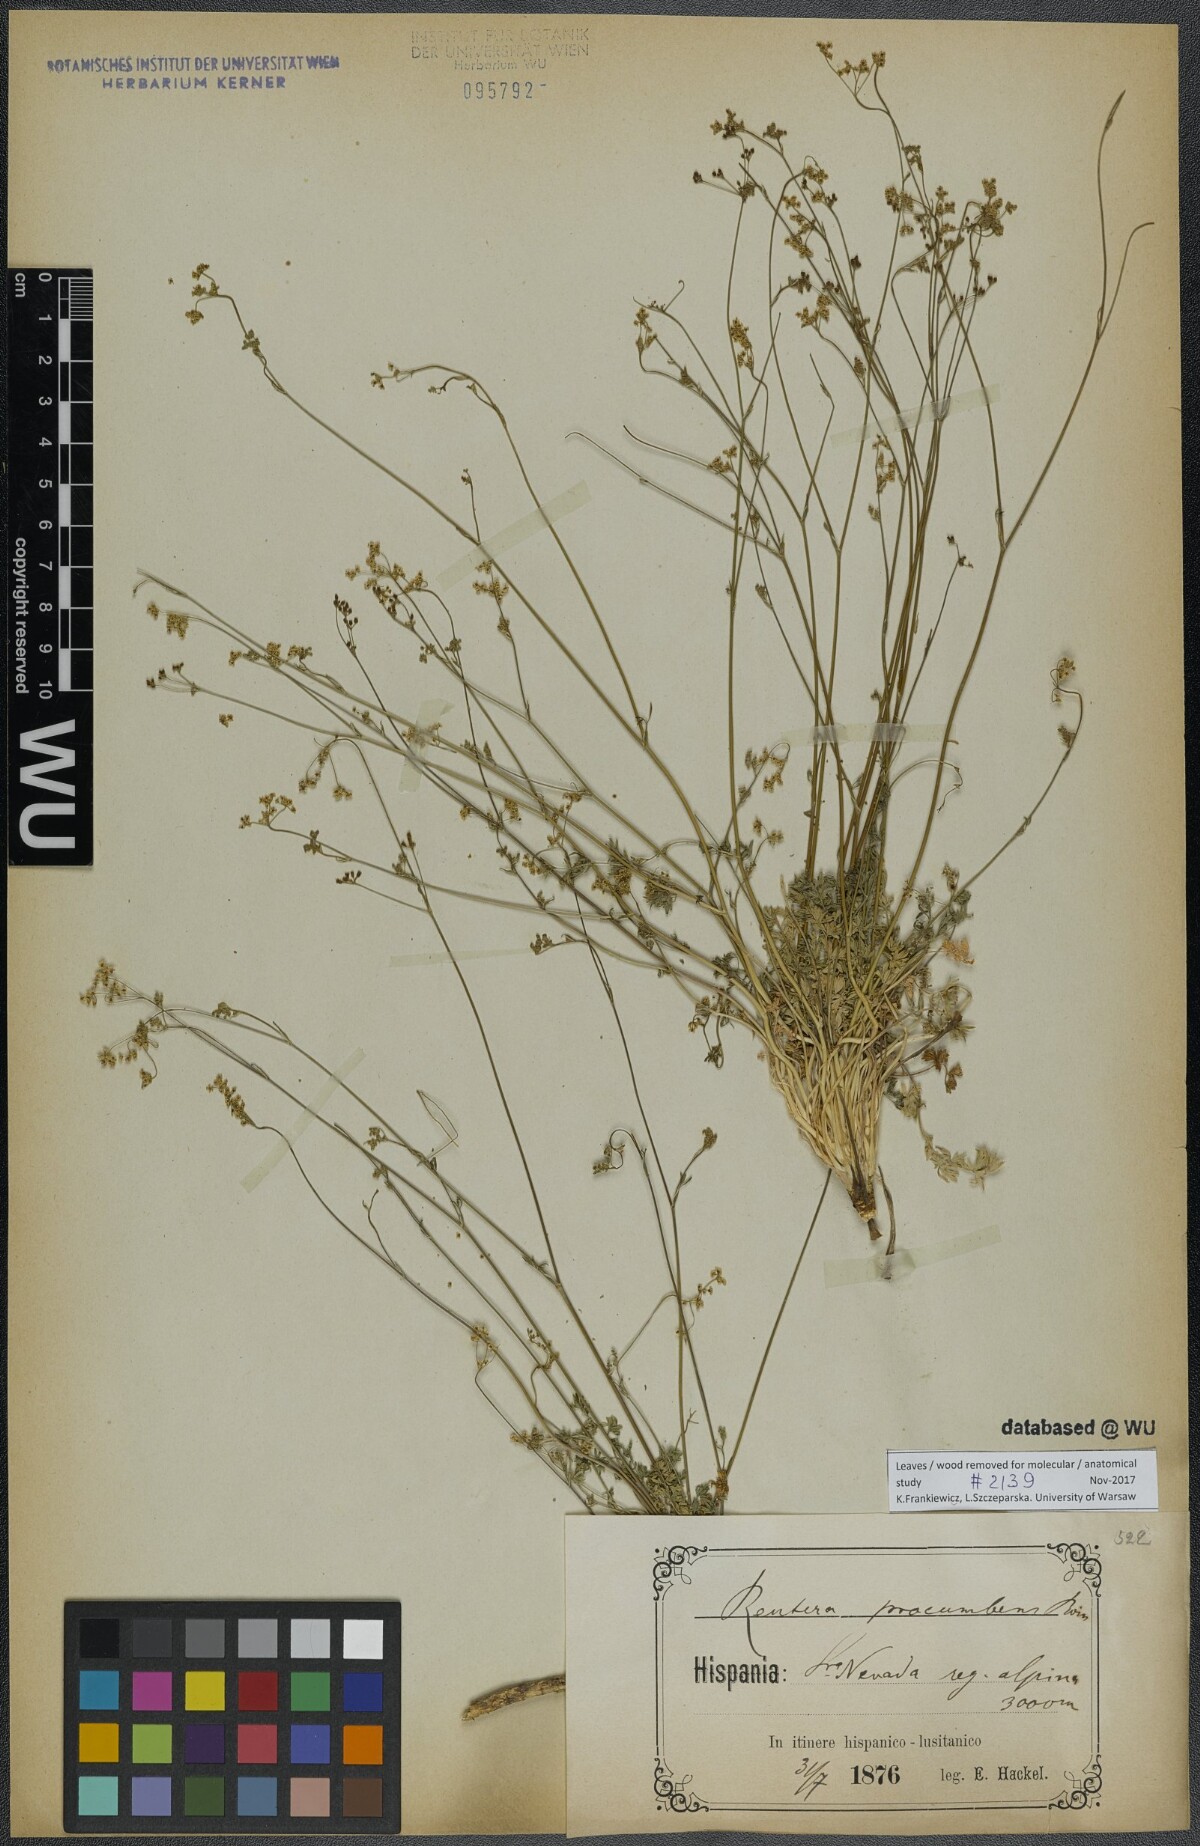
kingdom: Plantae
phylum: Tracheophyta
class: Magnoliopsida
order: Apiales
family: Apiaceae
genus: Pimpinella
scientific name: Pimpinella procumbens
